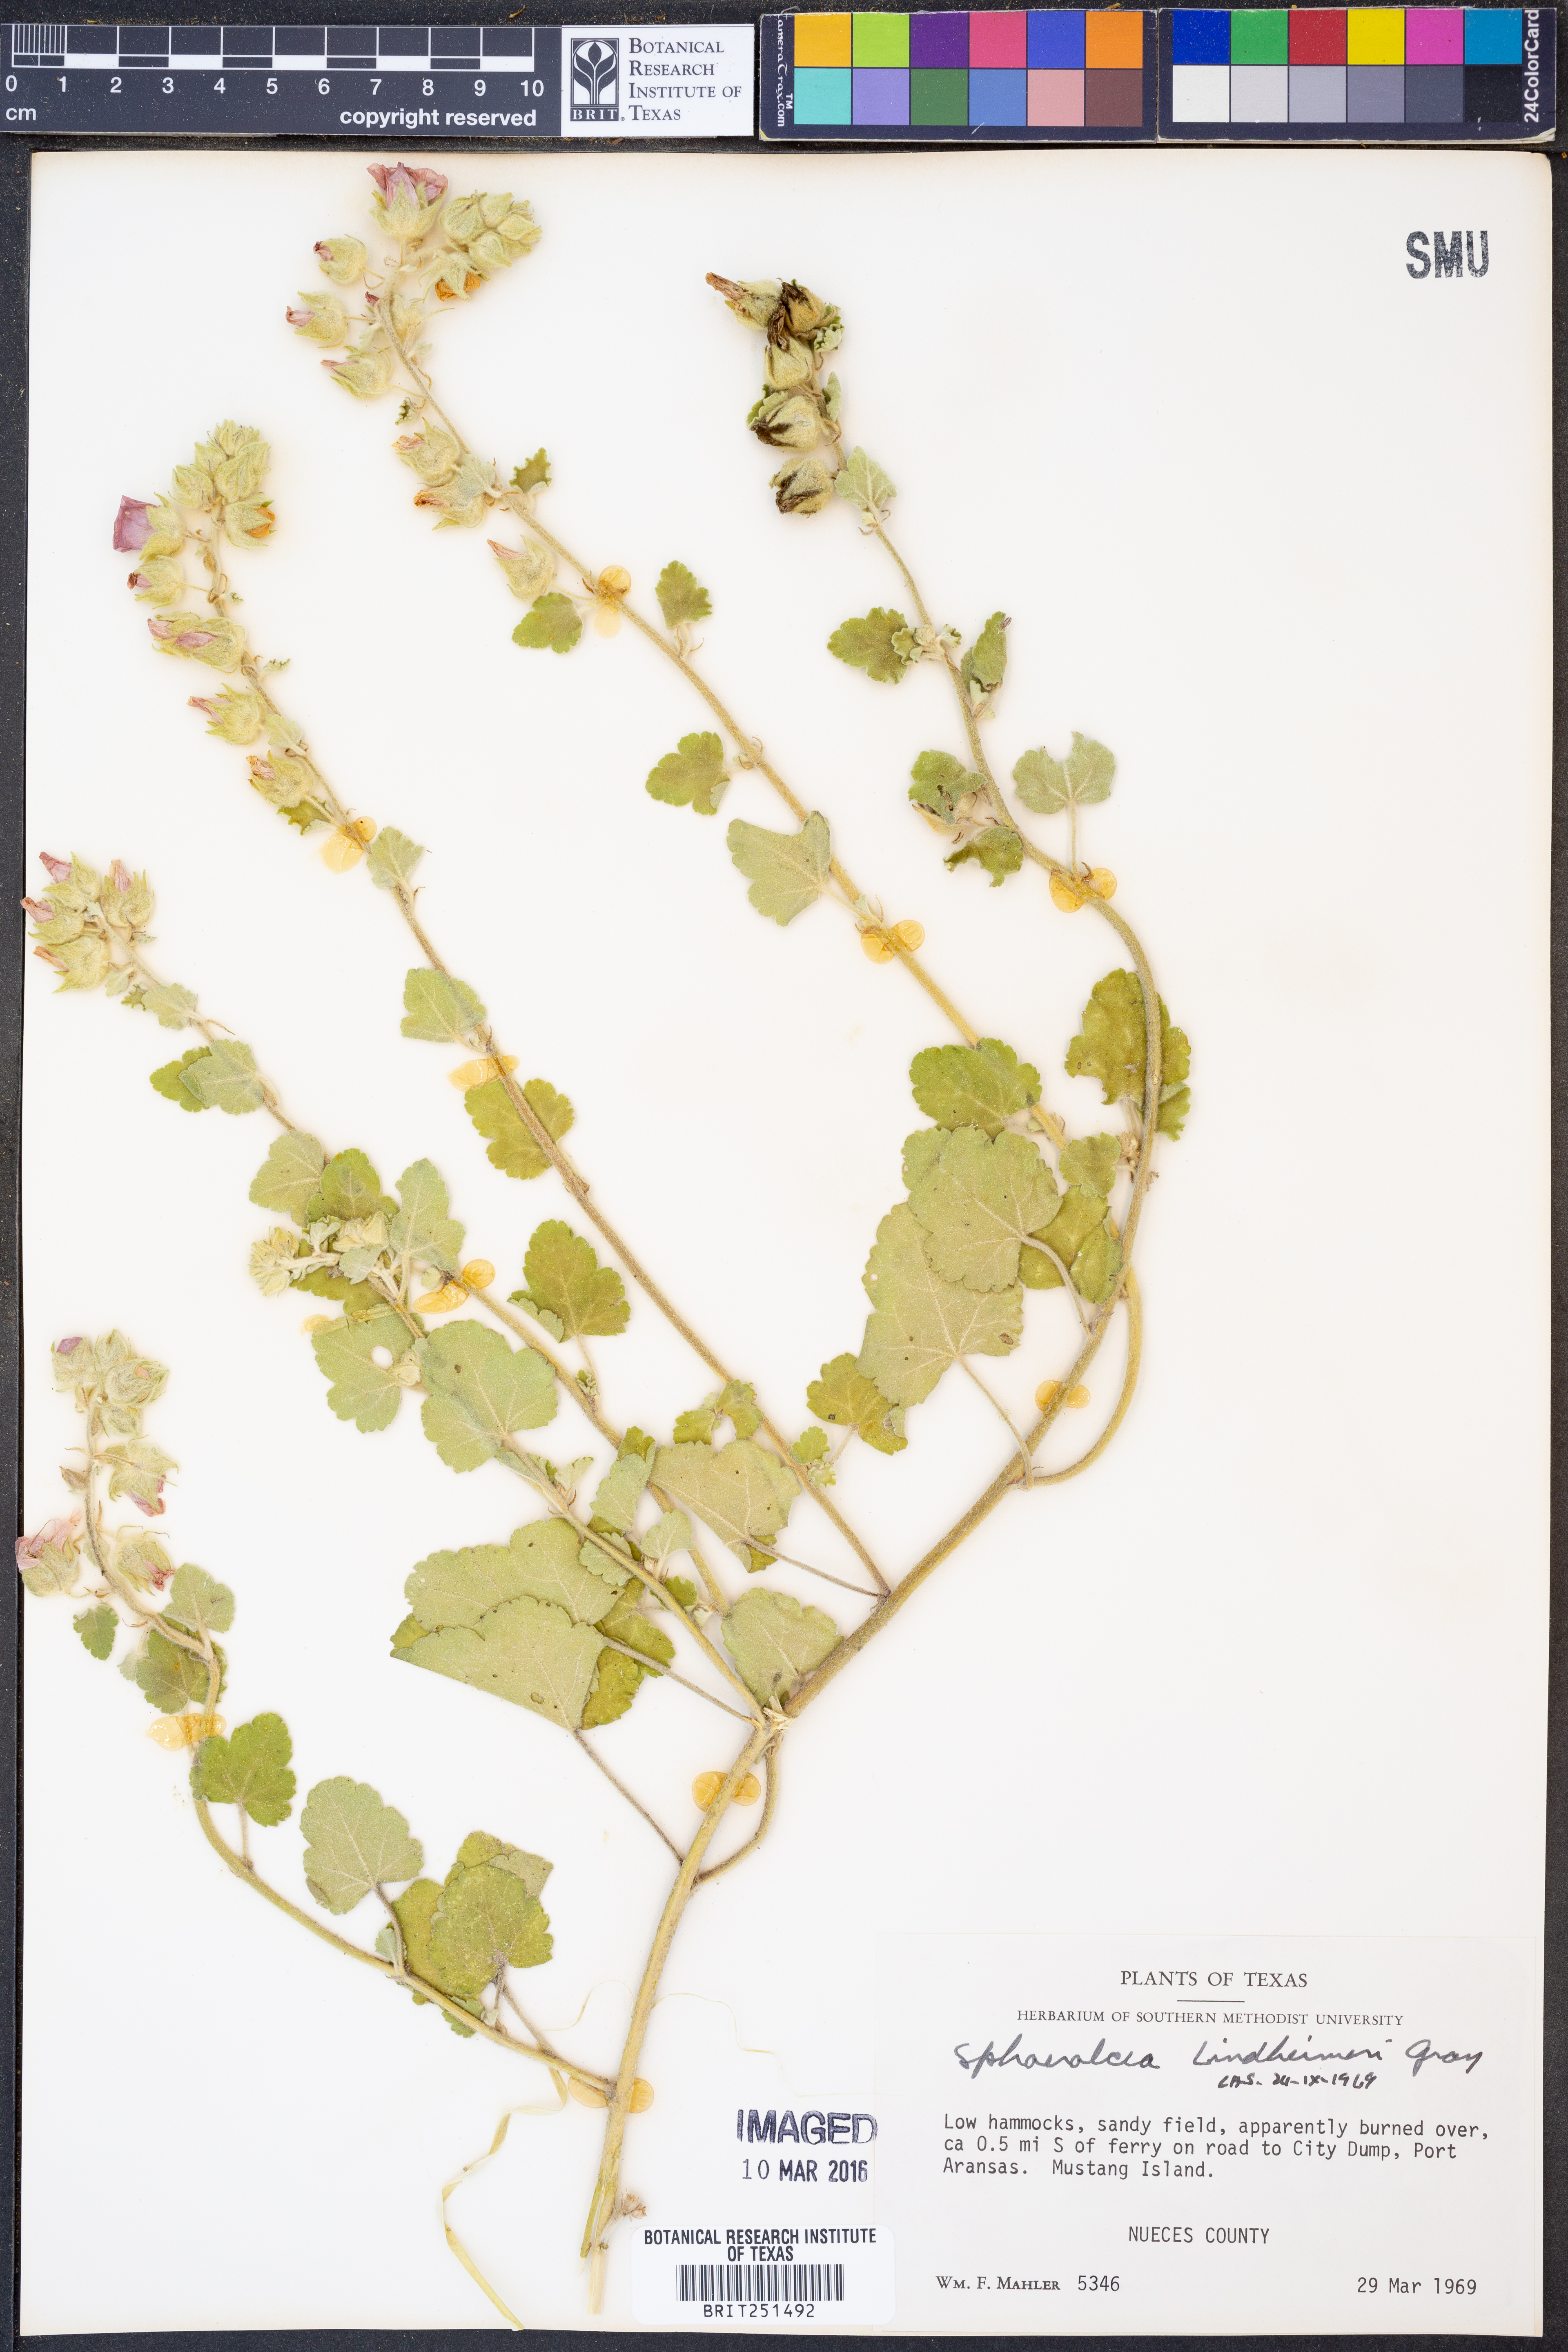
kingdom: Plantae
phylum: Tracheophyta
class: Magnoliopsida
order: Malvales
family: Malvaceae
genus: Sphaeralcea
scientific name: Sphaeralcea lindheimeri
